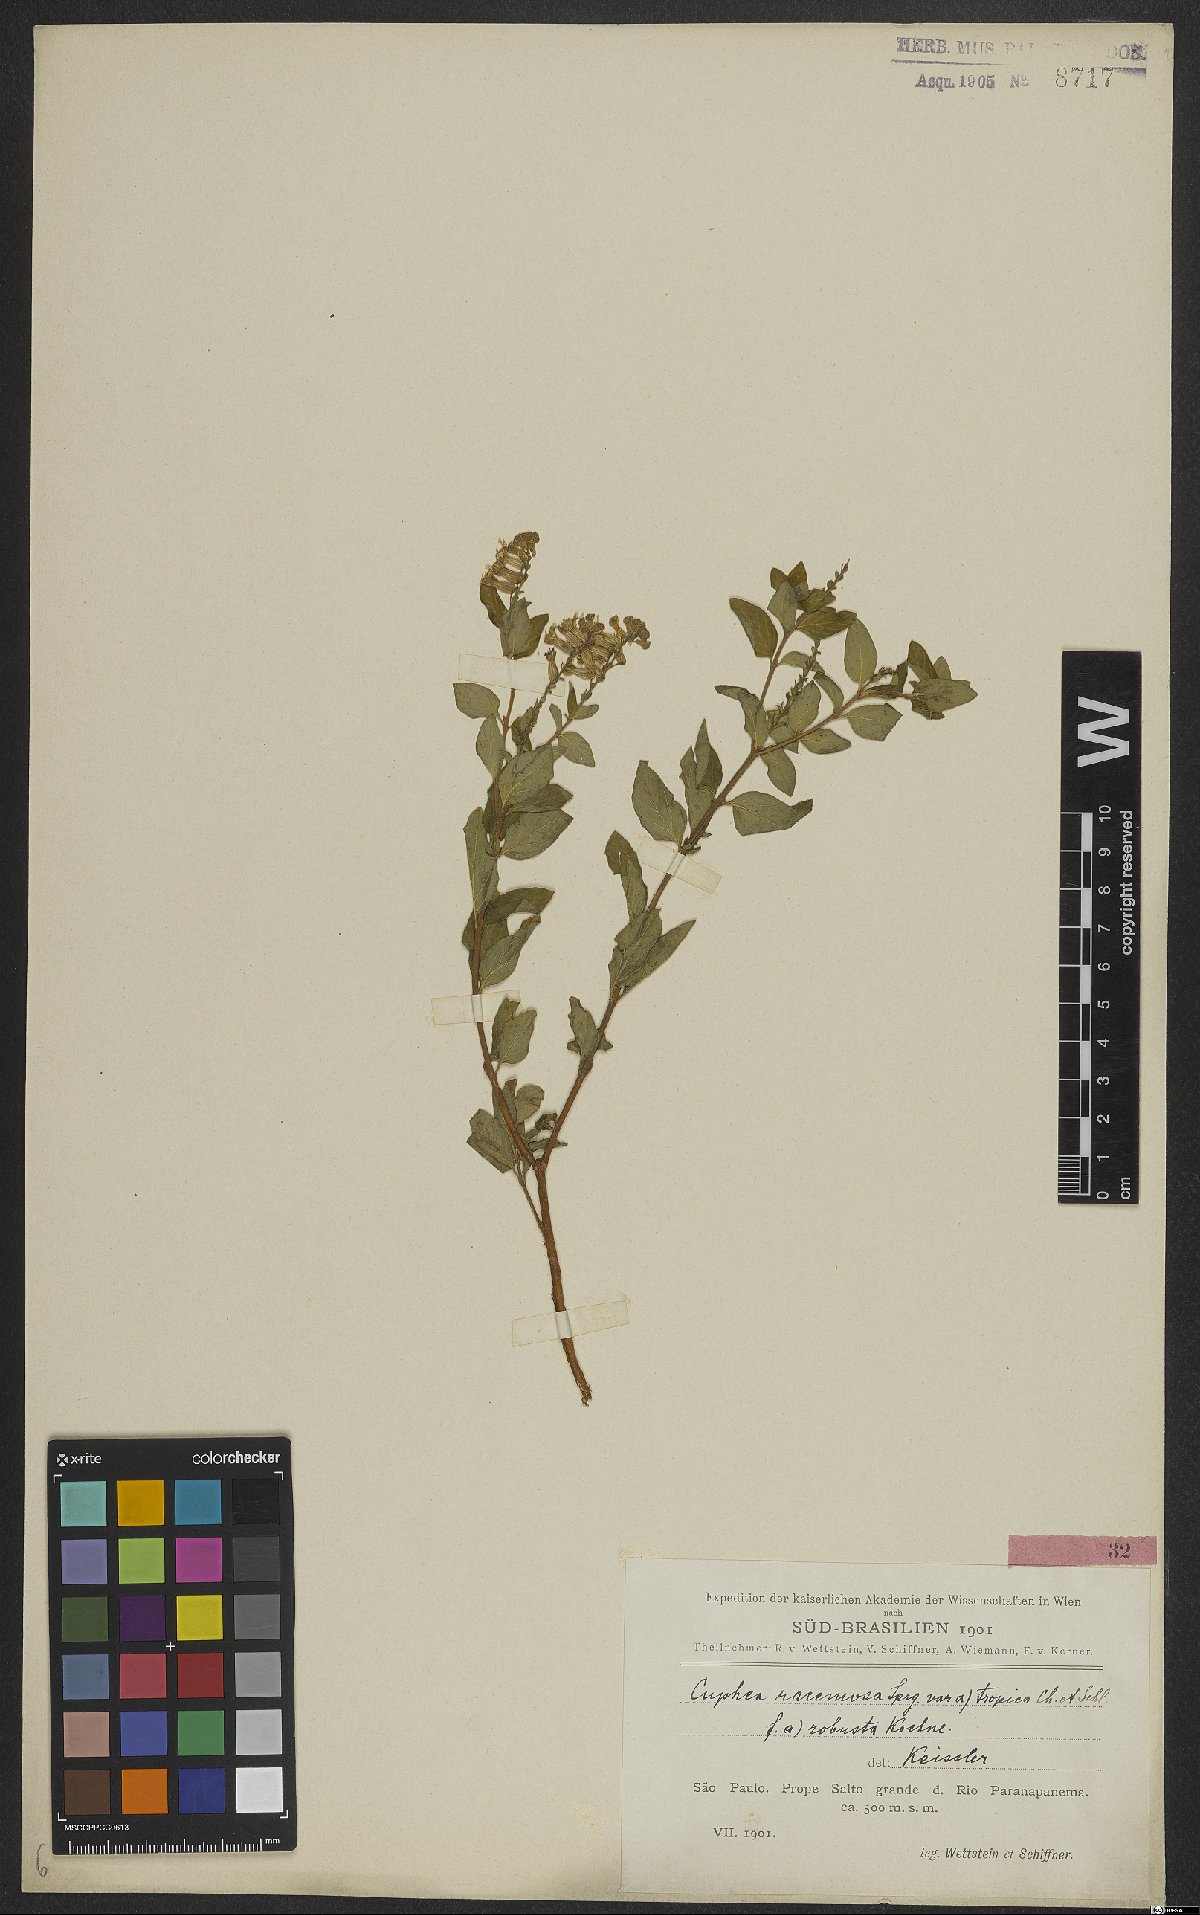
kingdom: Plantae
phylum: Tracheophyta
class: Magnoliopsida
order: Myrtales
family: Lythraceae
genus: Cuphea
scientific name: Cuphea racemosa
